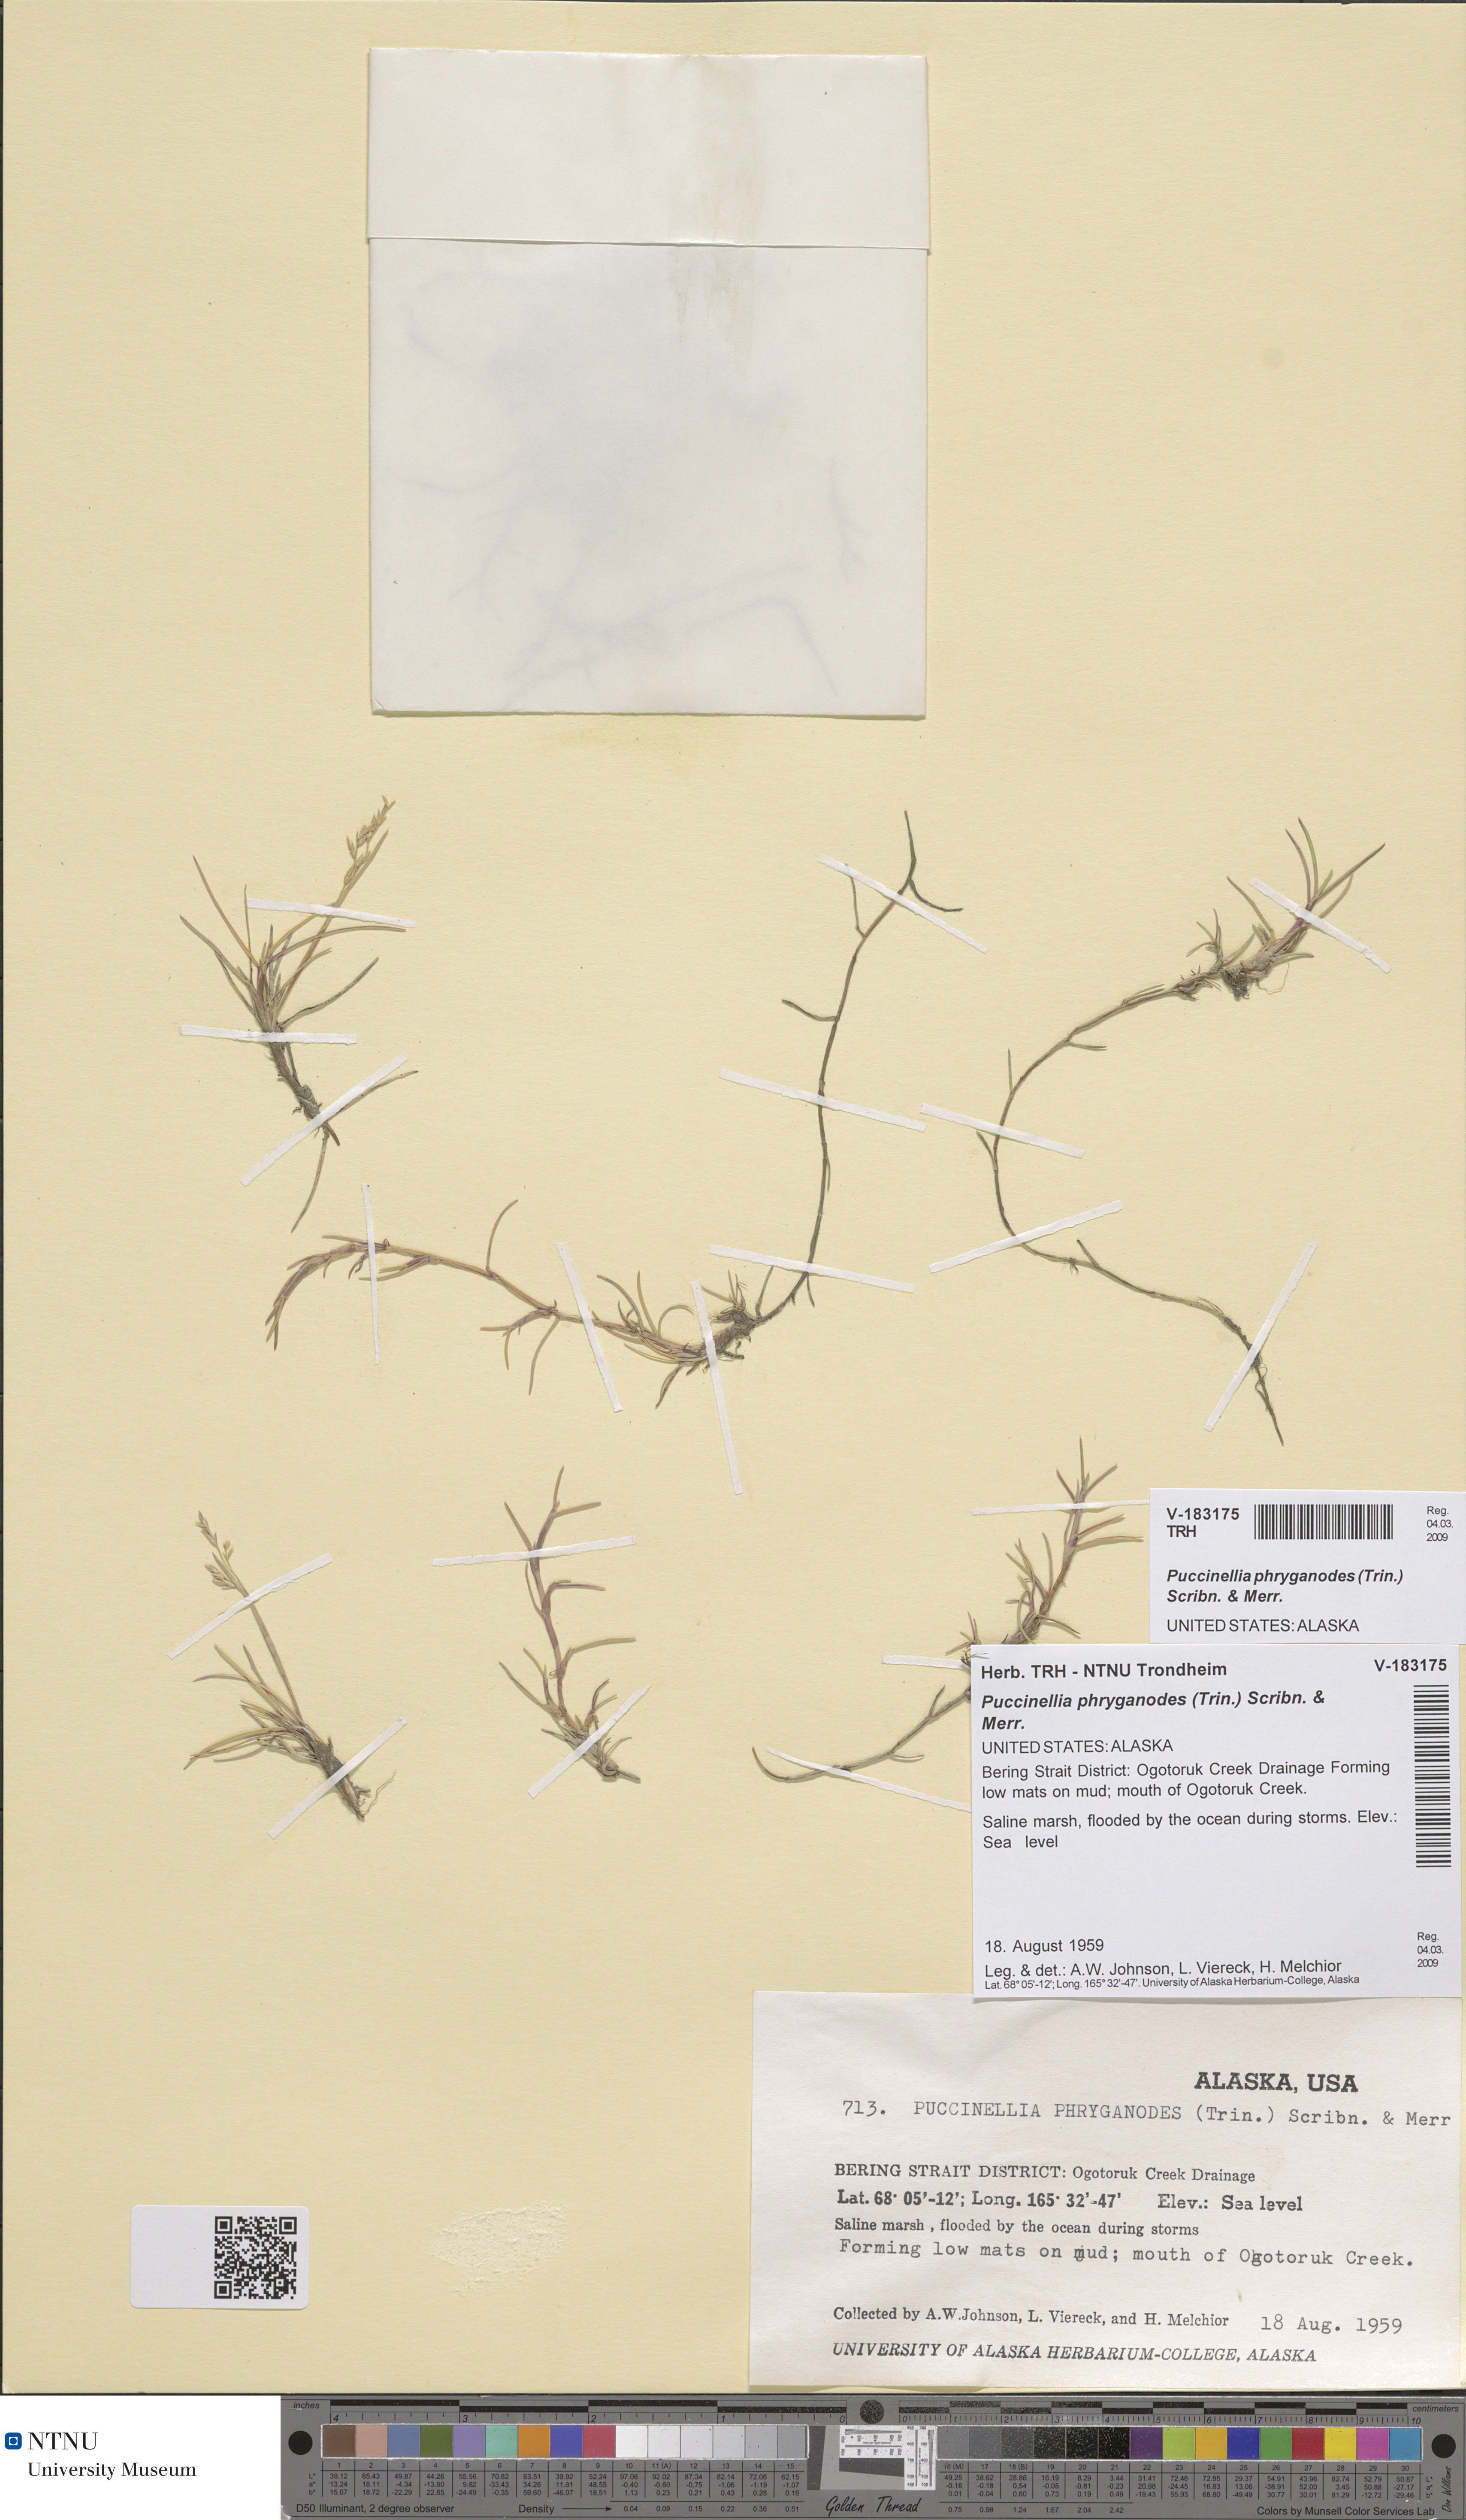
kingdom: Plantae
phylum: Tracheophyta
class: Liliopsida
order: Poales
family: Poaceae
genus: Puccinellia
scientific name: Puccinellia phryganodes
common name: Creeping alkaligrass
